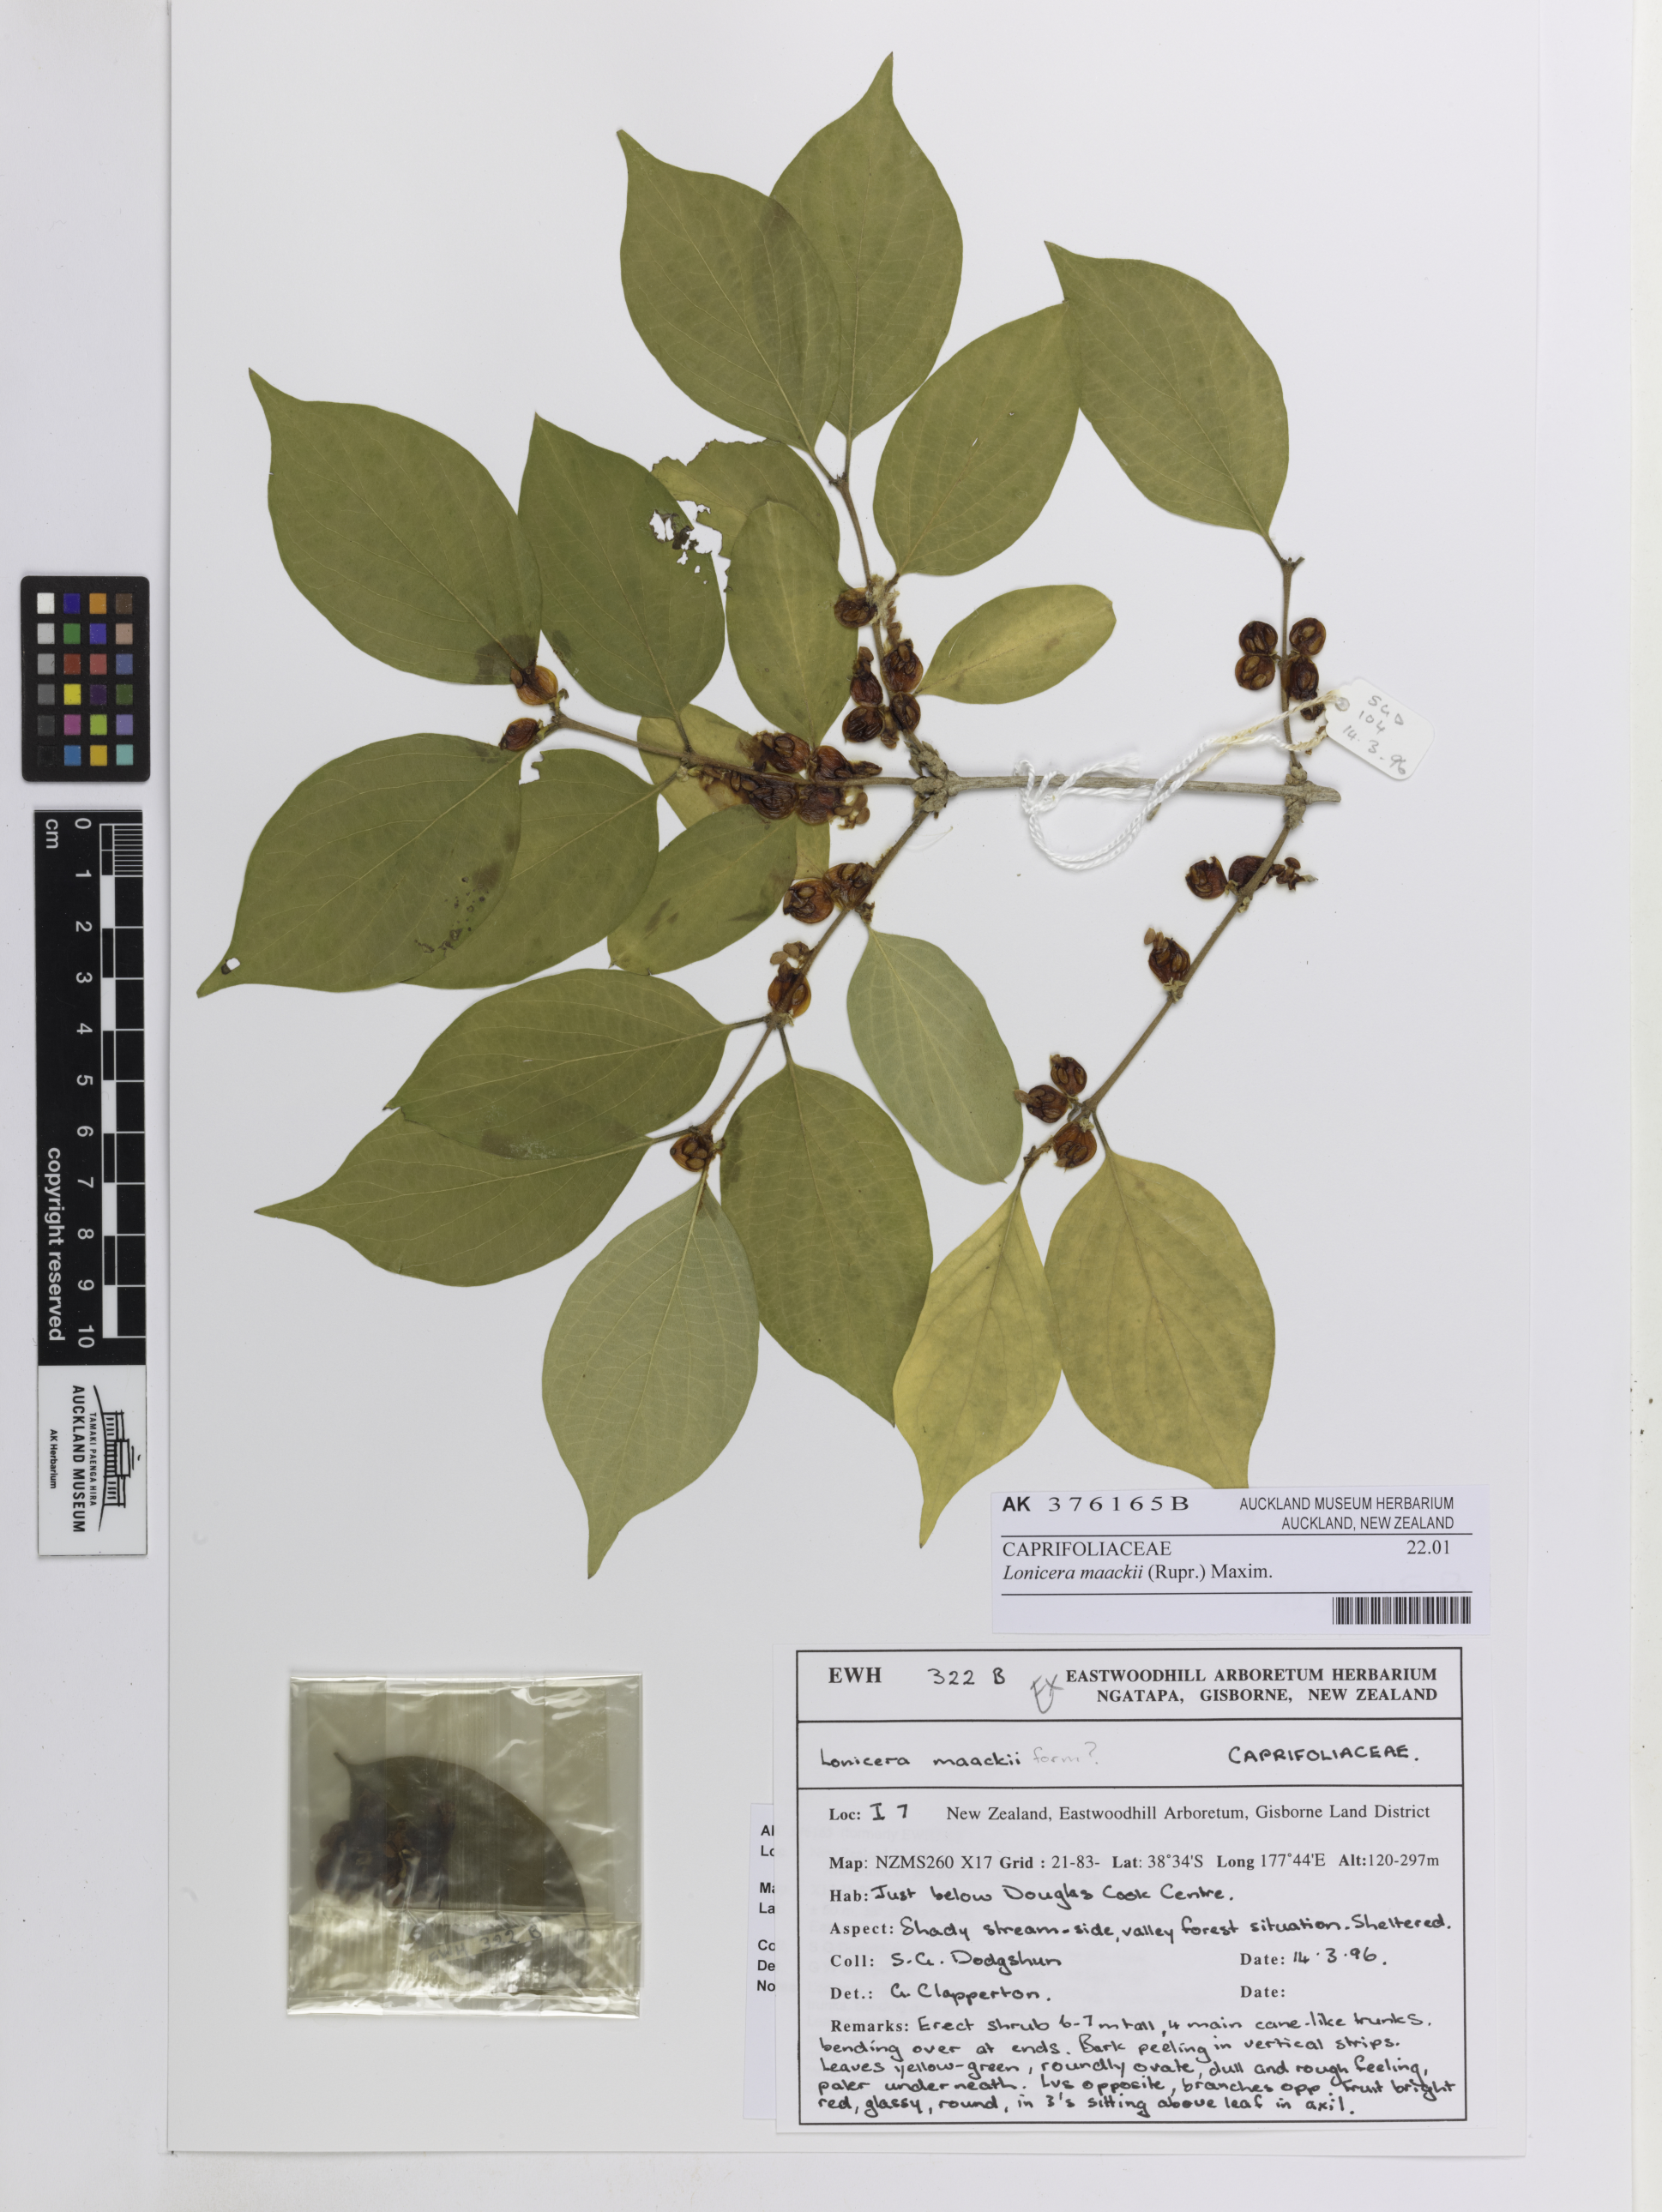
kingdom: Plantae
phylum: Tracheophyta
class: Magnoliopsida
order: Dipsacales
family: Caprifoliaceae
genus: Lonicera
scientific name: Lonicera maackii
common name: Amur honeysuckle
